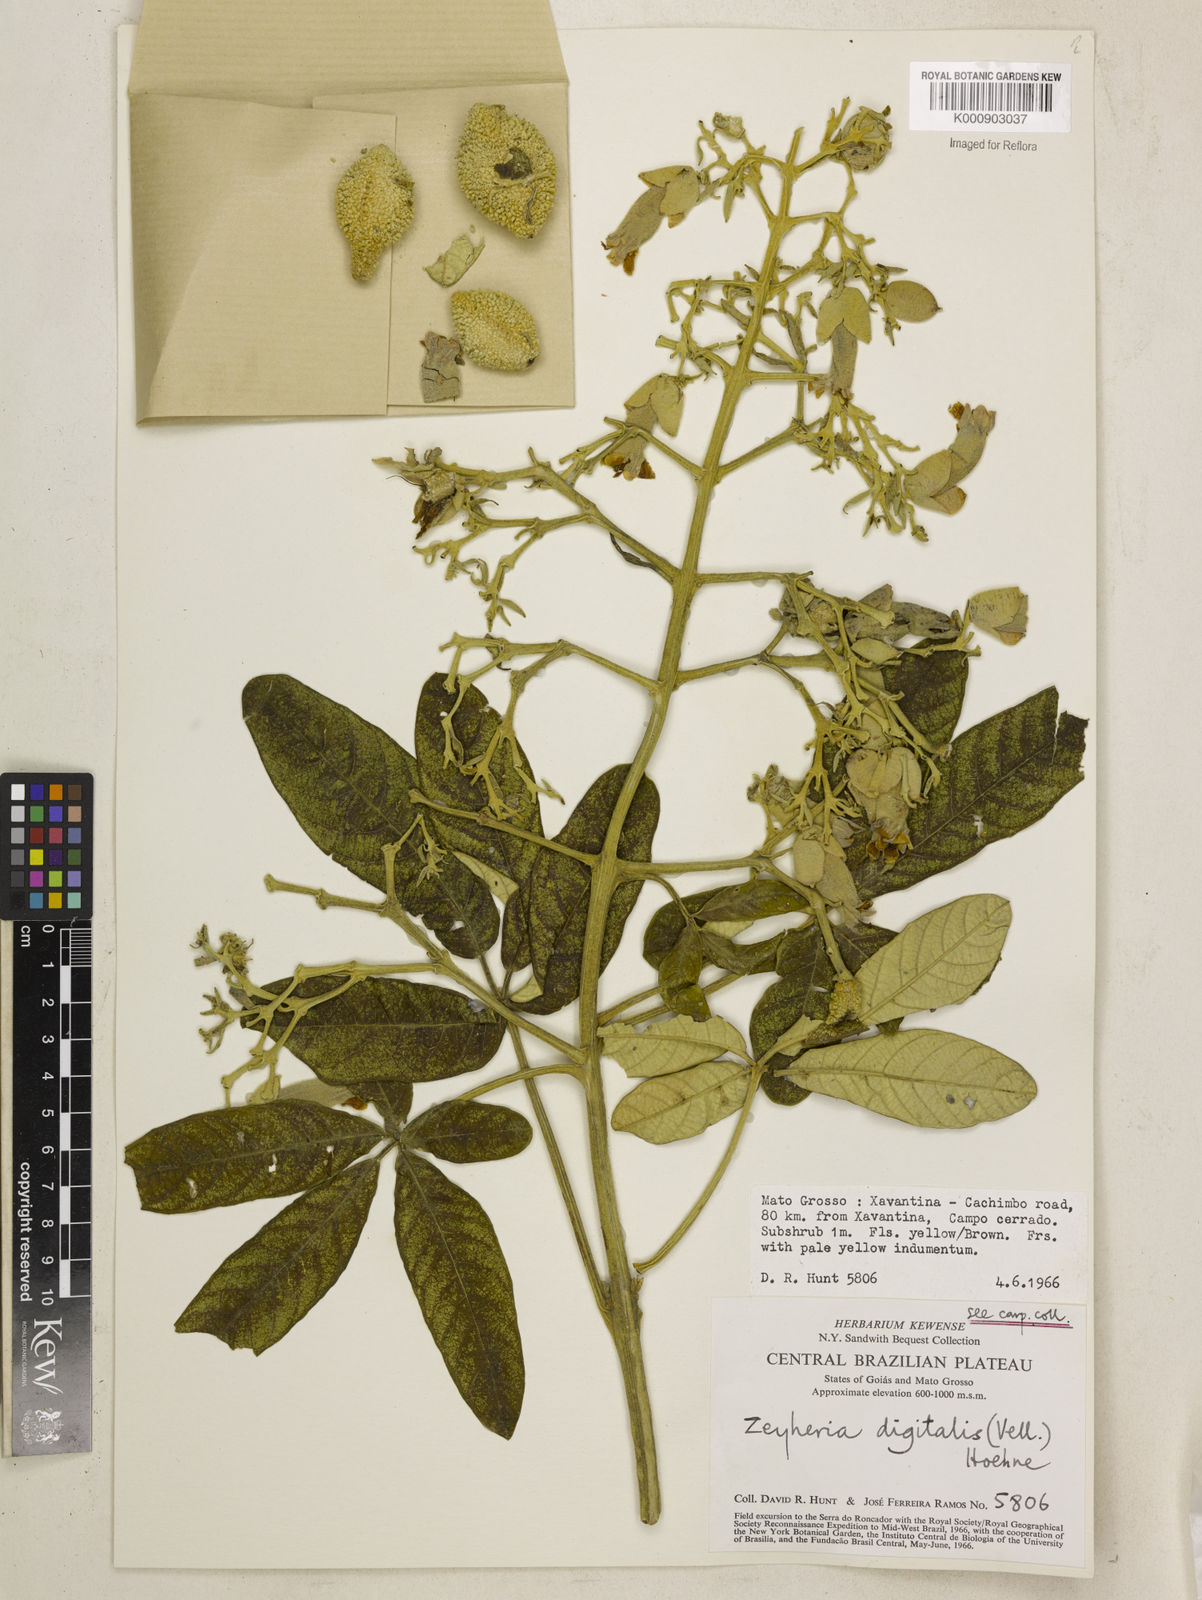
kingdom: Plantae
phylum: Tracheophyta
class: Magnoliopsida
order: Lamiales
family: Bignoniaceae
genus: Zeyheria
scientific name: Zeyheria
